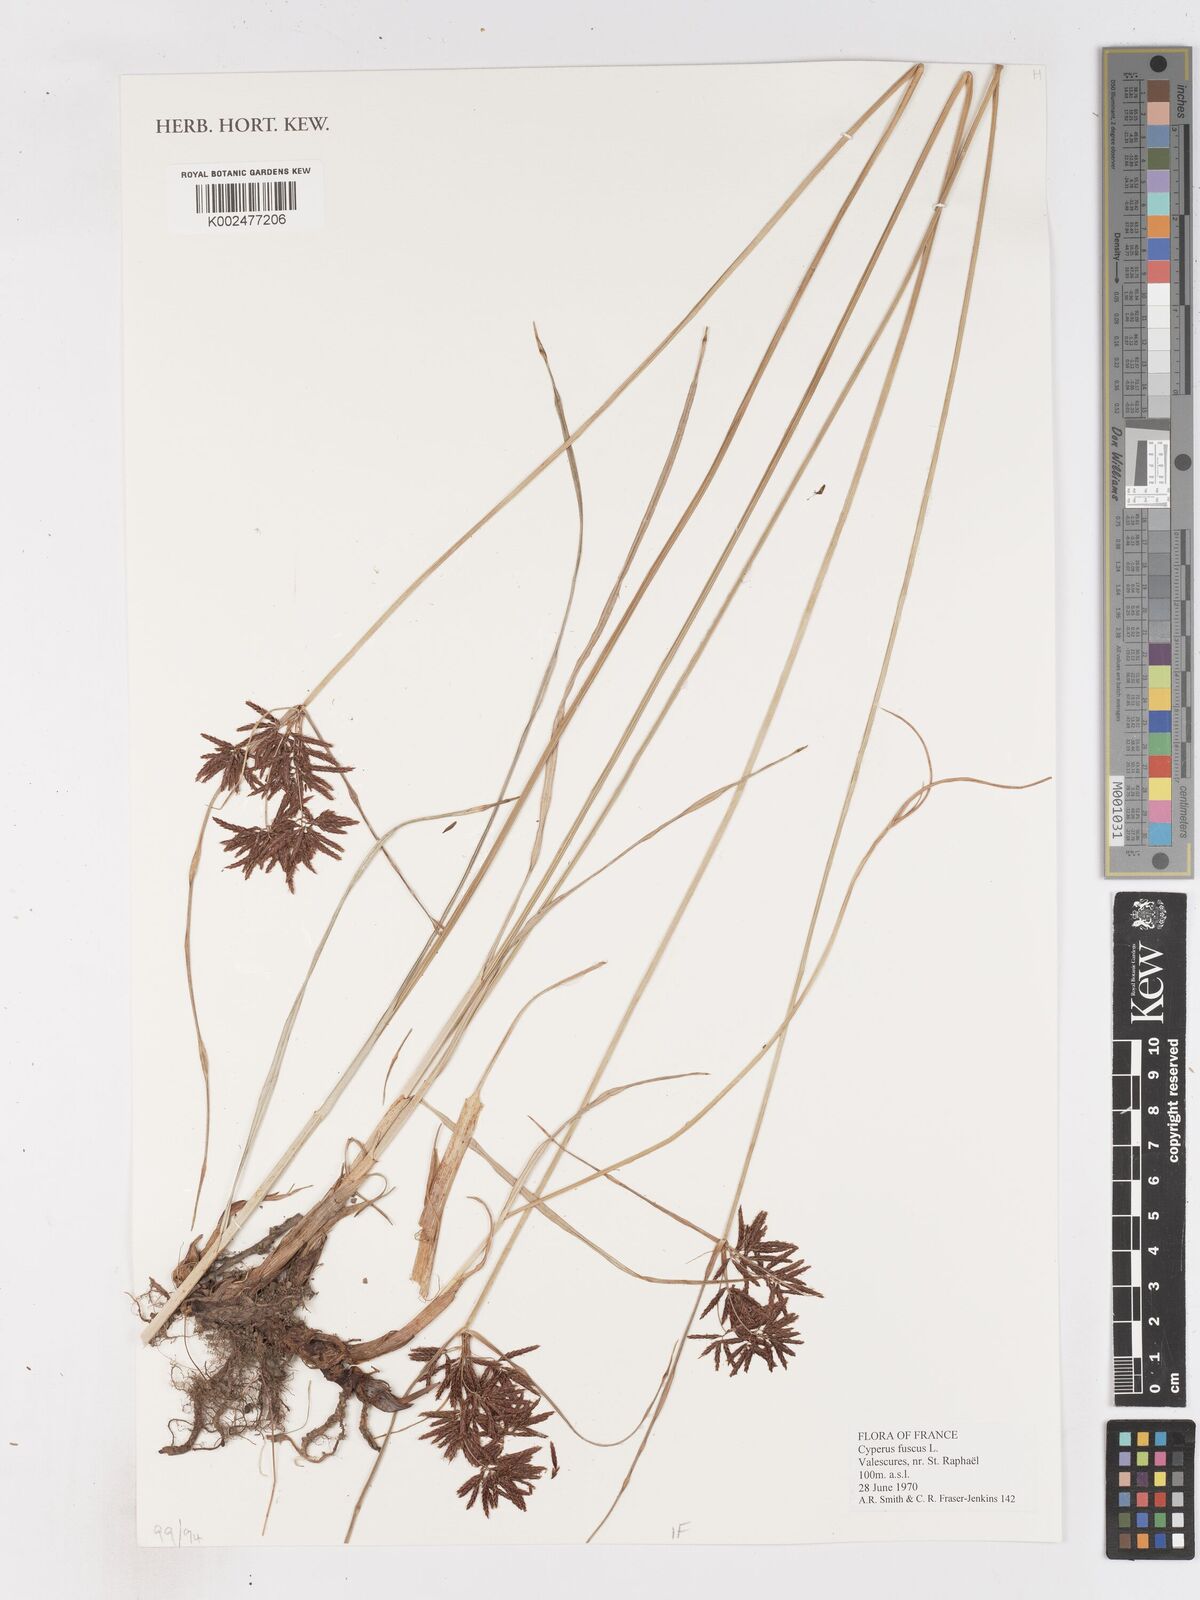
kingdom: Plantae
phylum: Tracheophyta
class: Liliopsida
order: Poales
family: Cyperaceae
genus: Cyperus
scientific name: Cyperus fuscus
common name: Brown galingale
